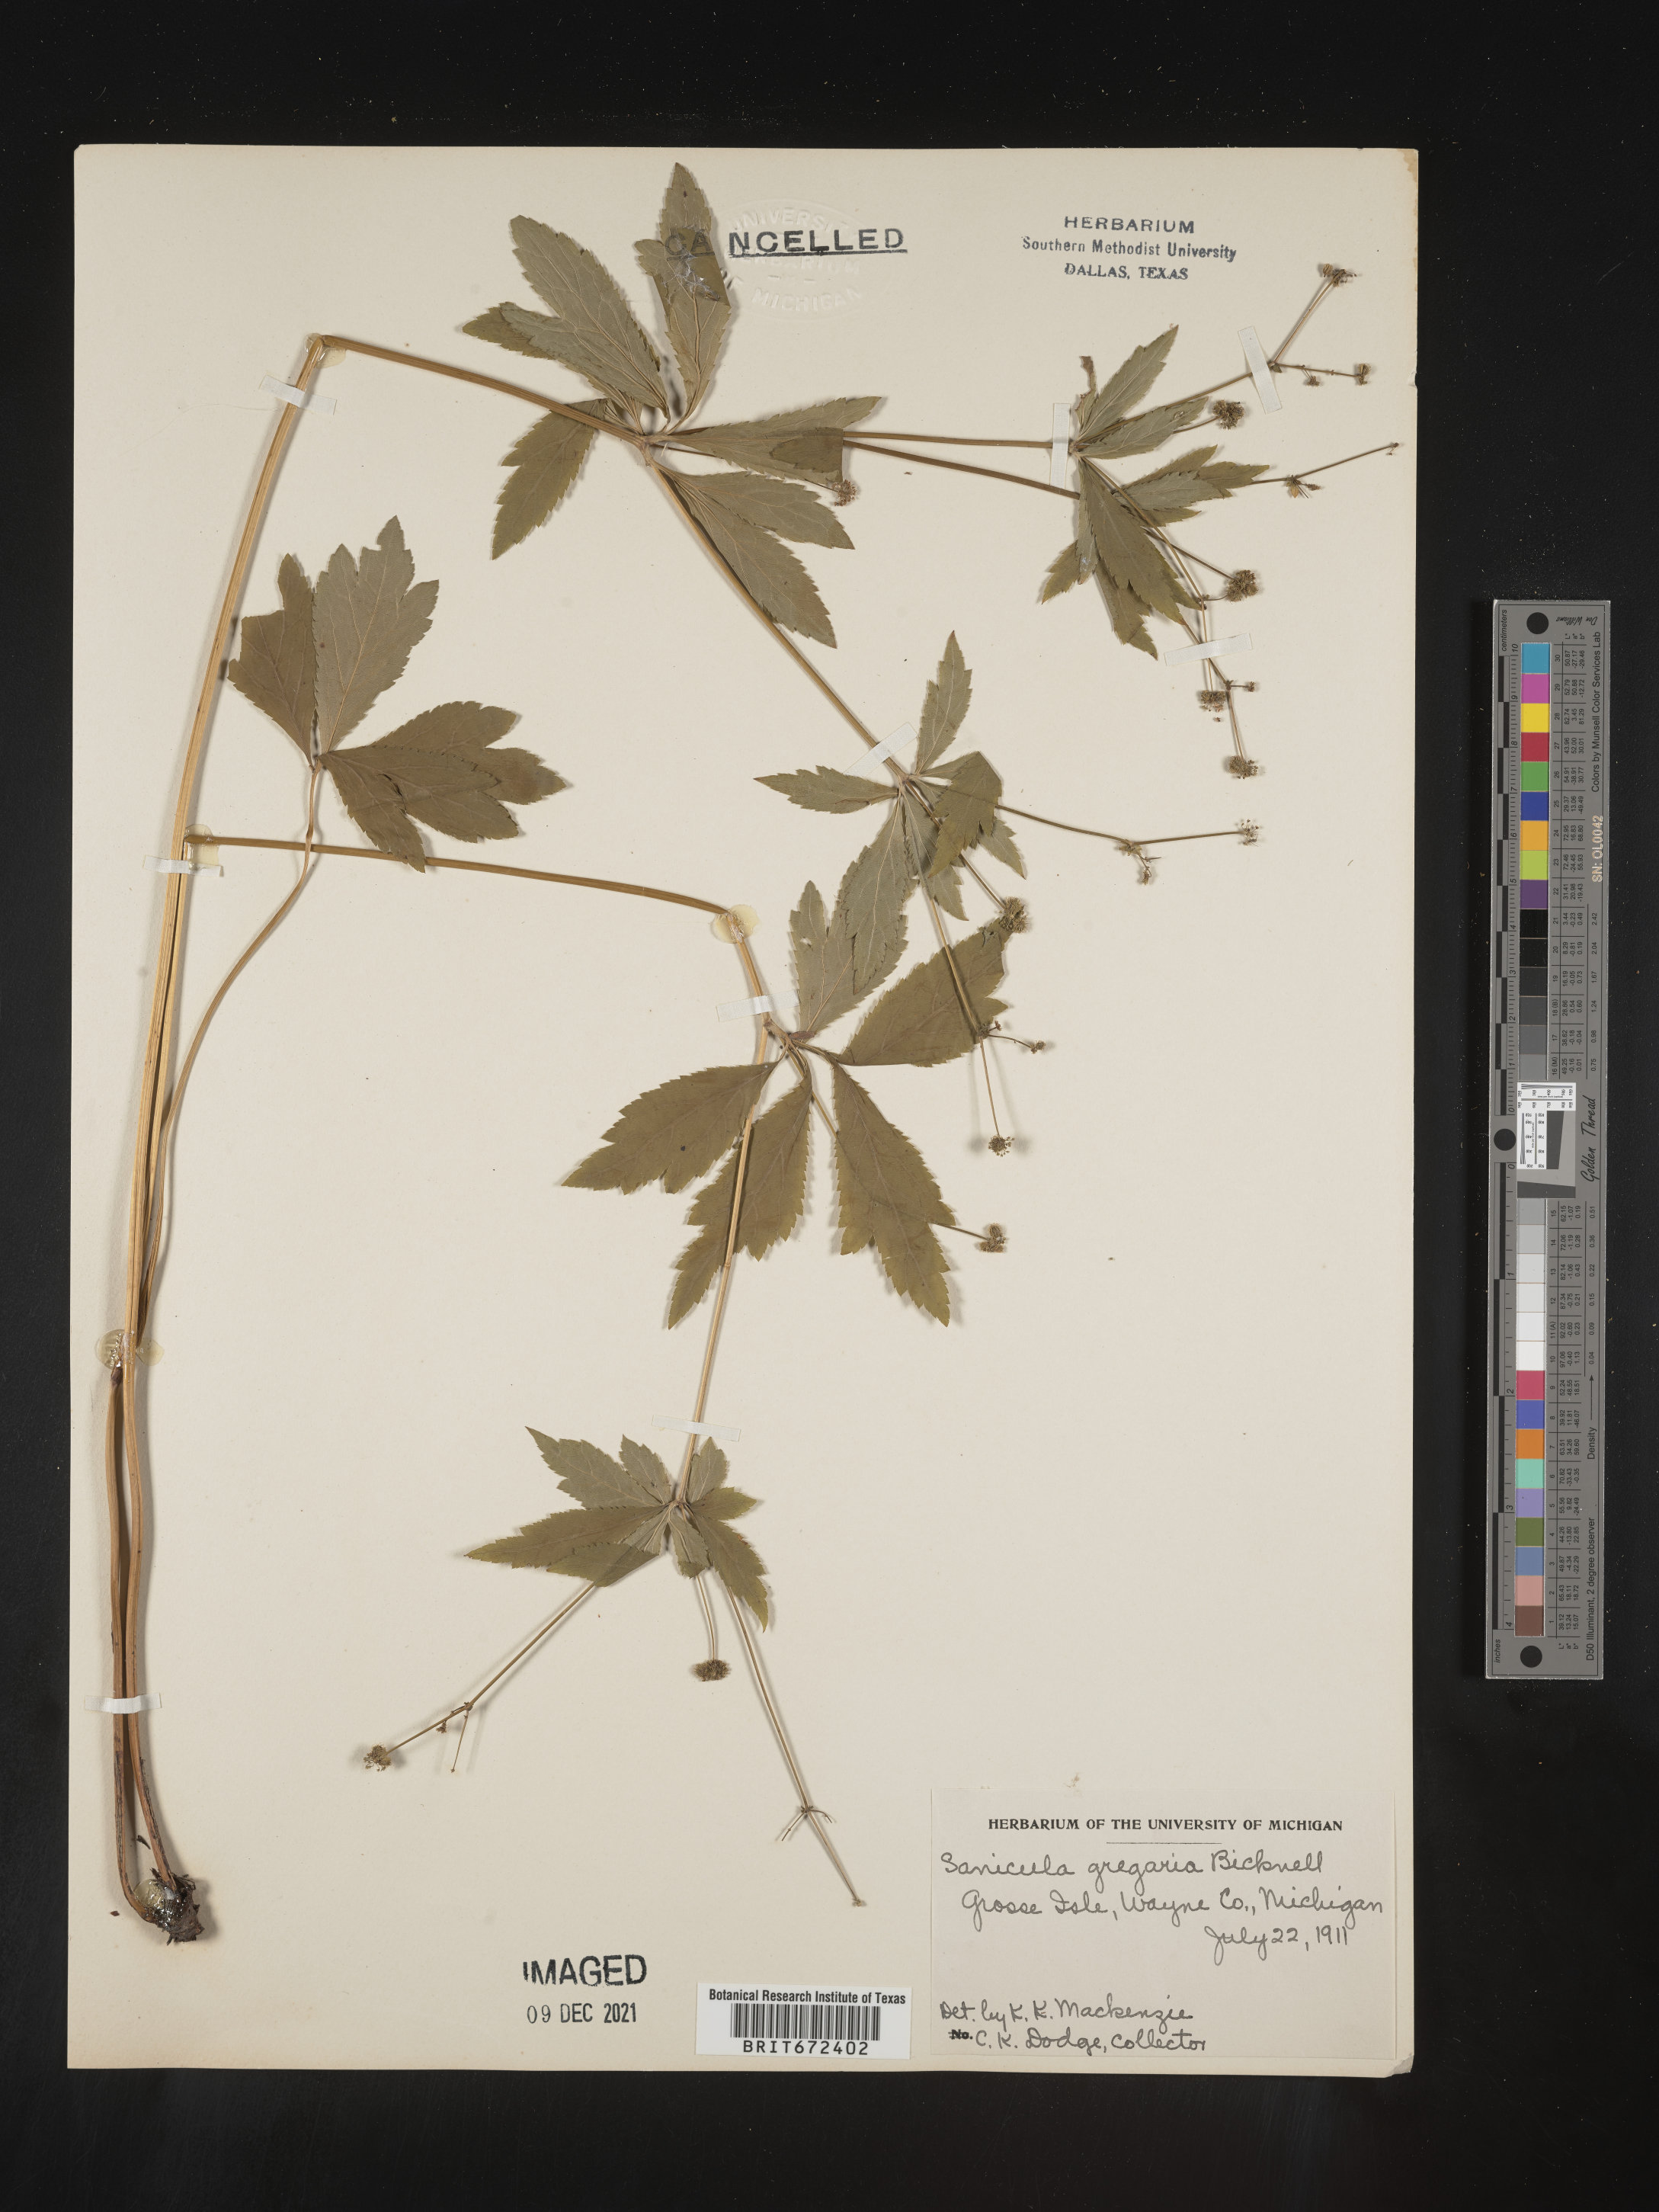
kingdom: Plantae
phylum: Tracheophyta
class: Magnoliopsida
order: Apiales
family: Apiaceae
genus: Sanicula
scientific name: Sanicula odorata
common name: Cluster sanicle
